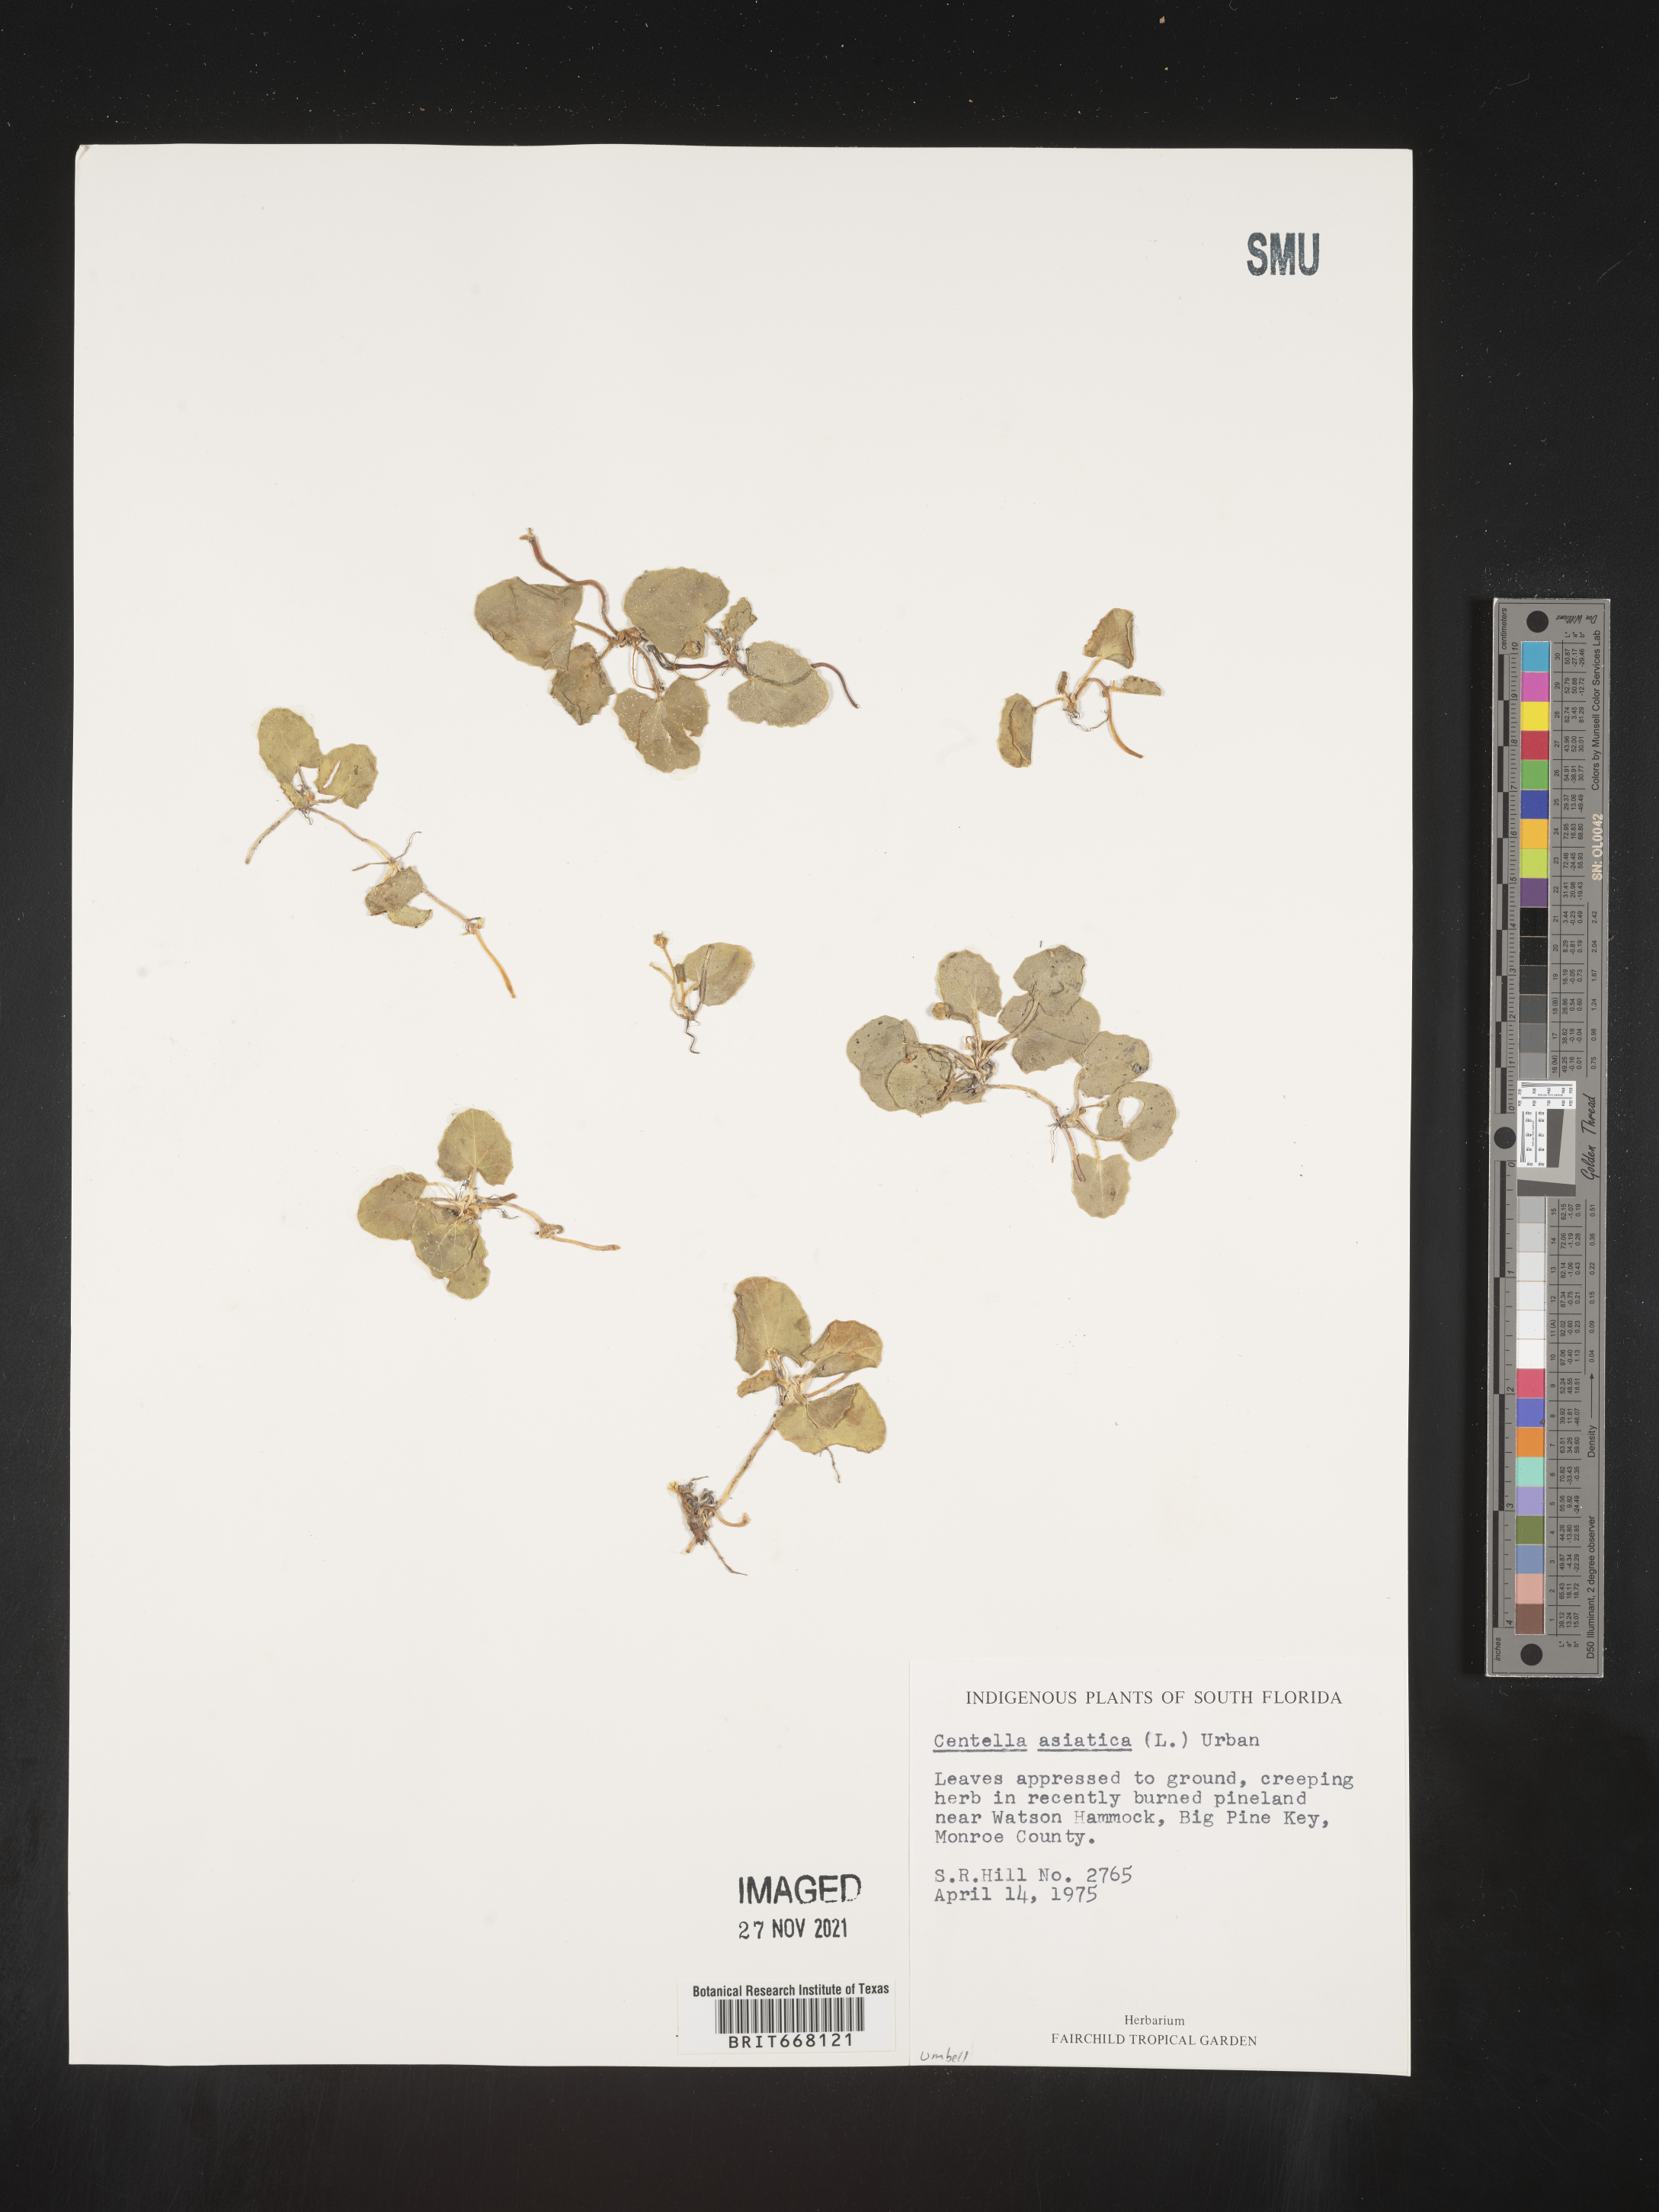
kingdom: Plantae
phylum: Tracheophyta
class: Magnoliopsida
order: Apiales
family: Apiaceae
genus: Centella
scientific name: Centella
